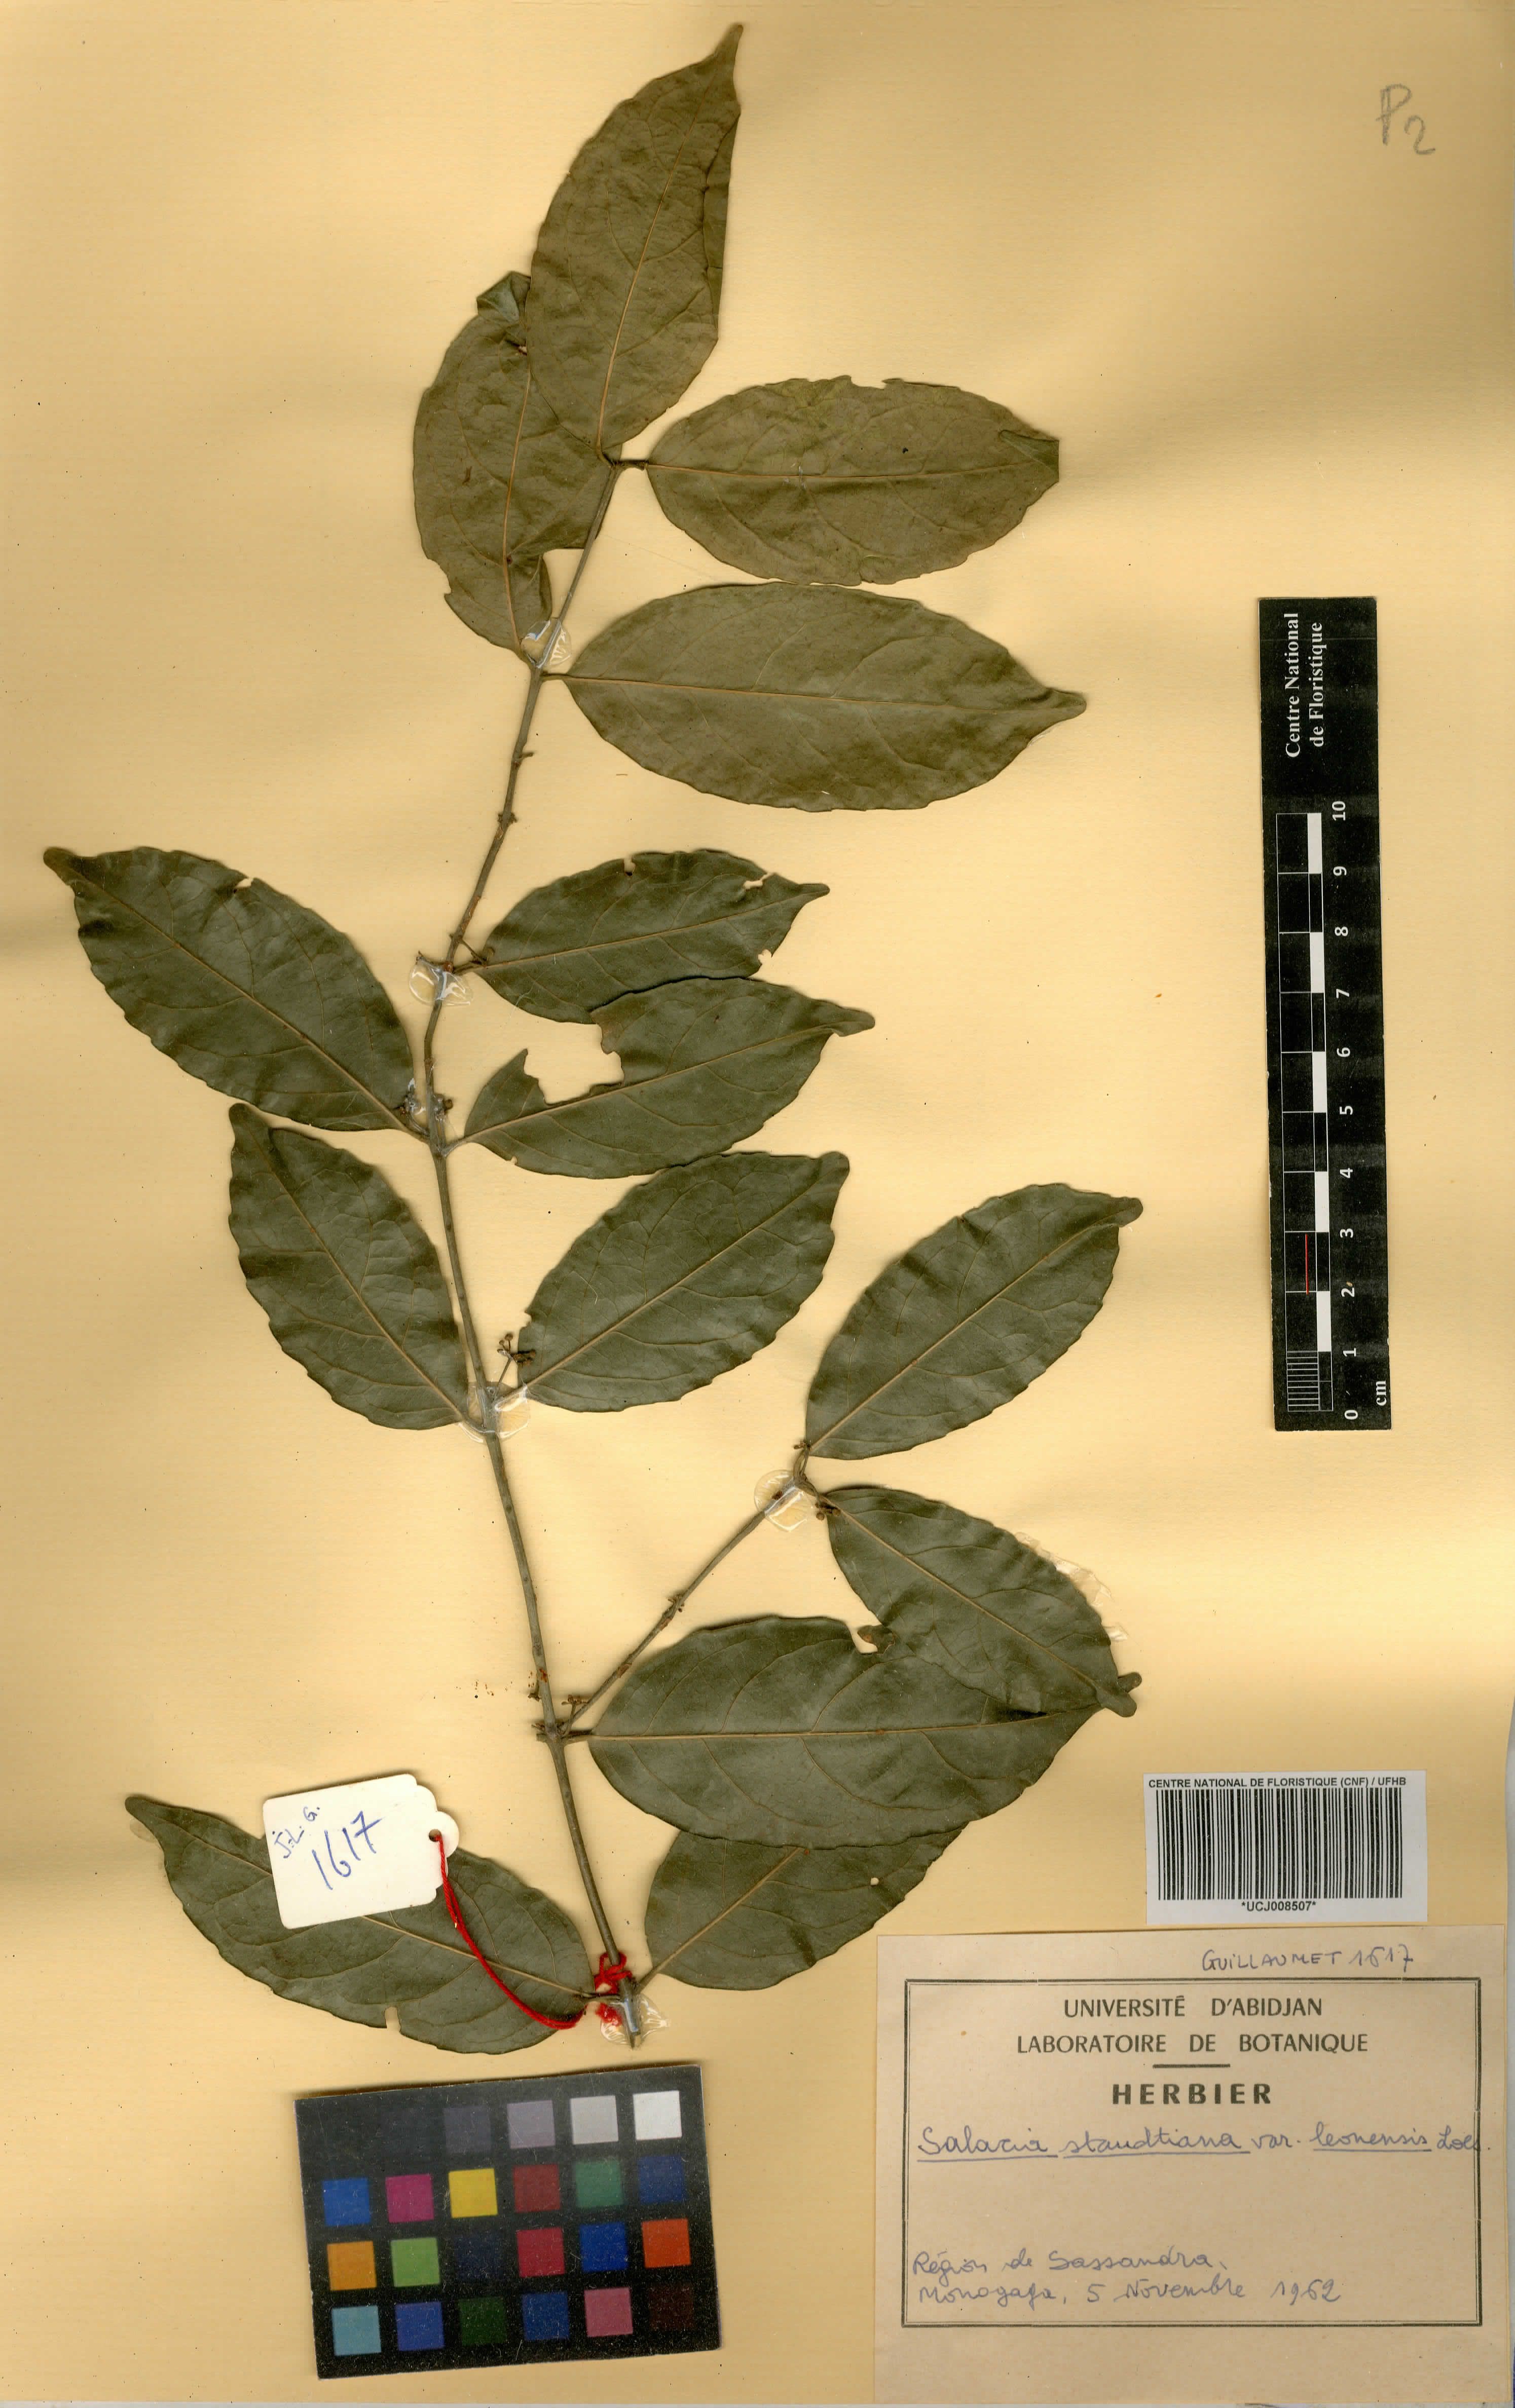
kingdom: Plantae
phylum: Tracheophyta
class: Magnoliopsida
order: Celastrales
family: Celastraceae
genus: Salacia
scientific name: Salacia caillei
